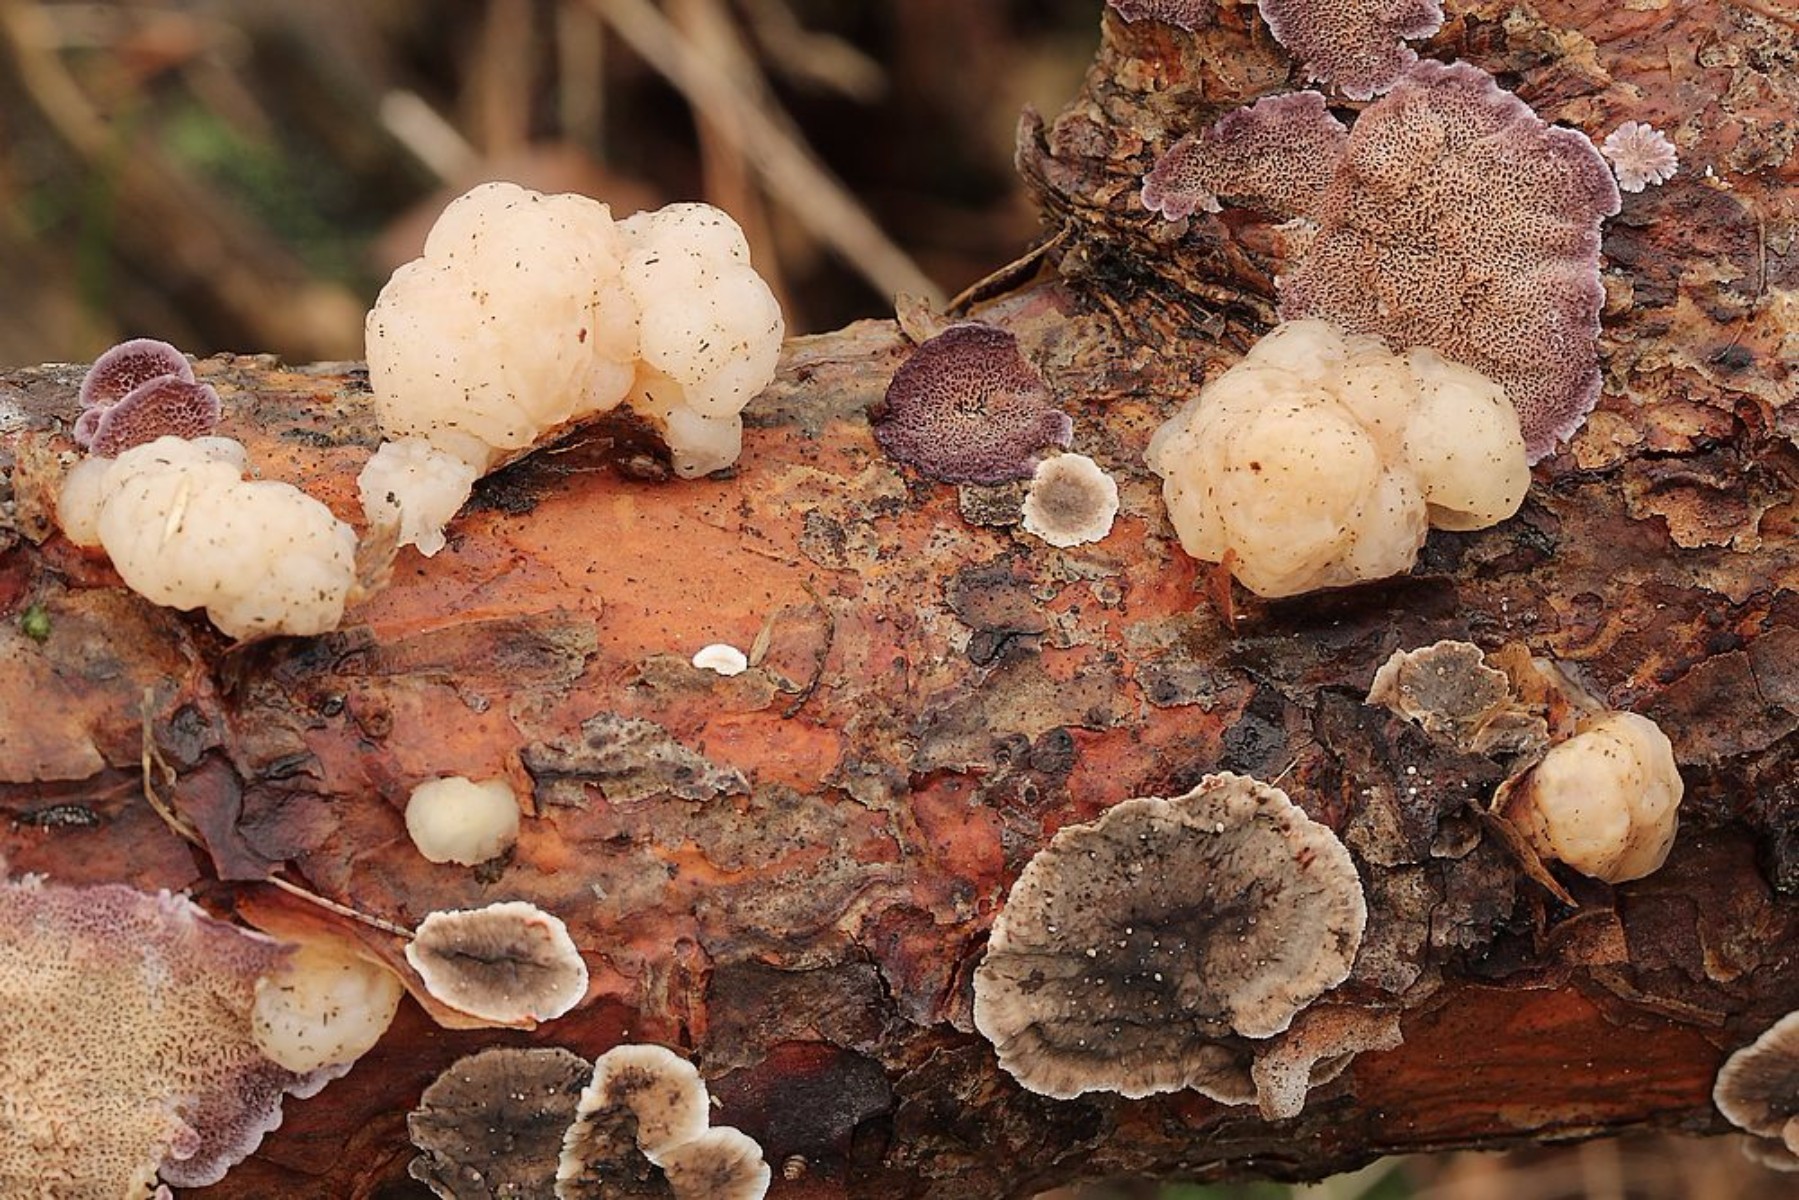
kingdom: Fungi
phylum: Basidiomycota
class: Tremellomycetes
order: Tremellales
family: Naemateliaceae
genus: Naematelia
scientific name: Naematelia encephala
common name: fyrre-bævresvamp
